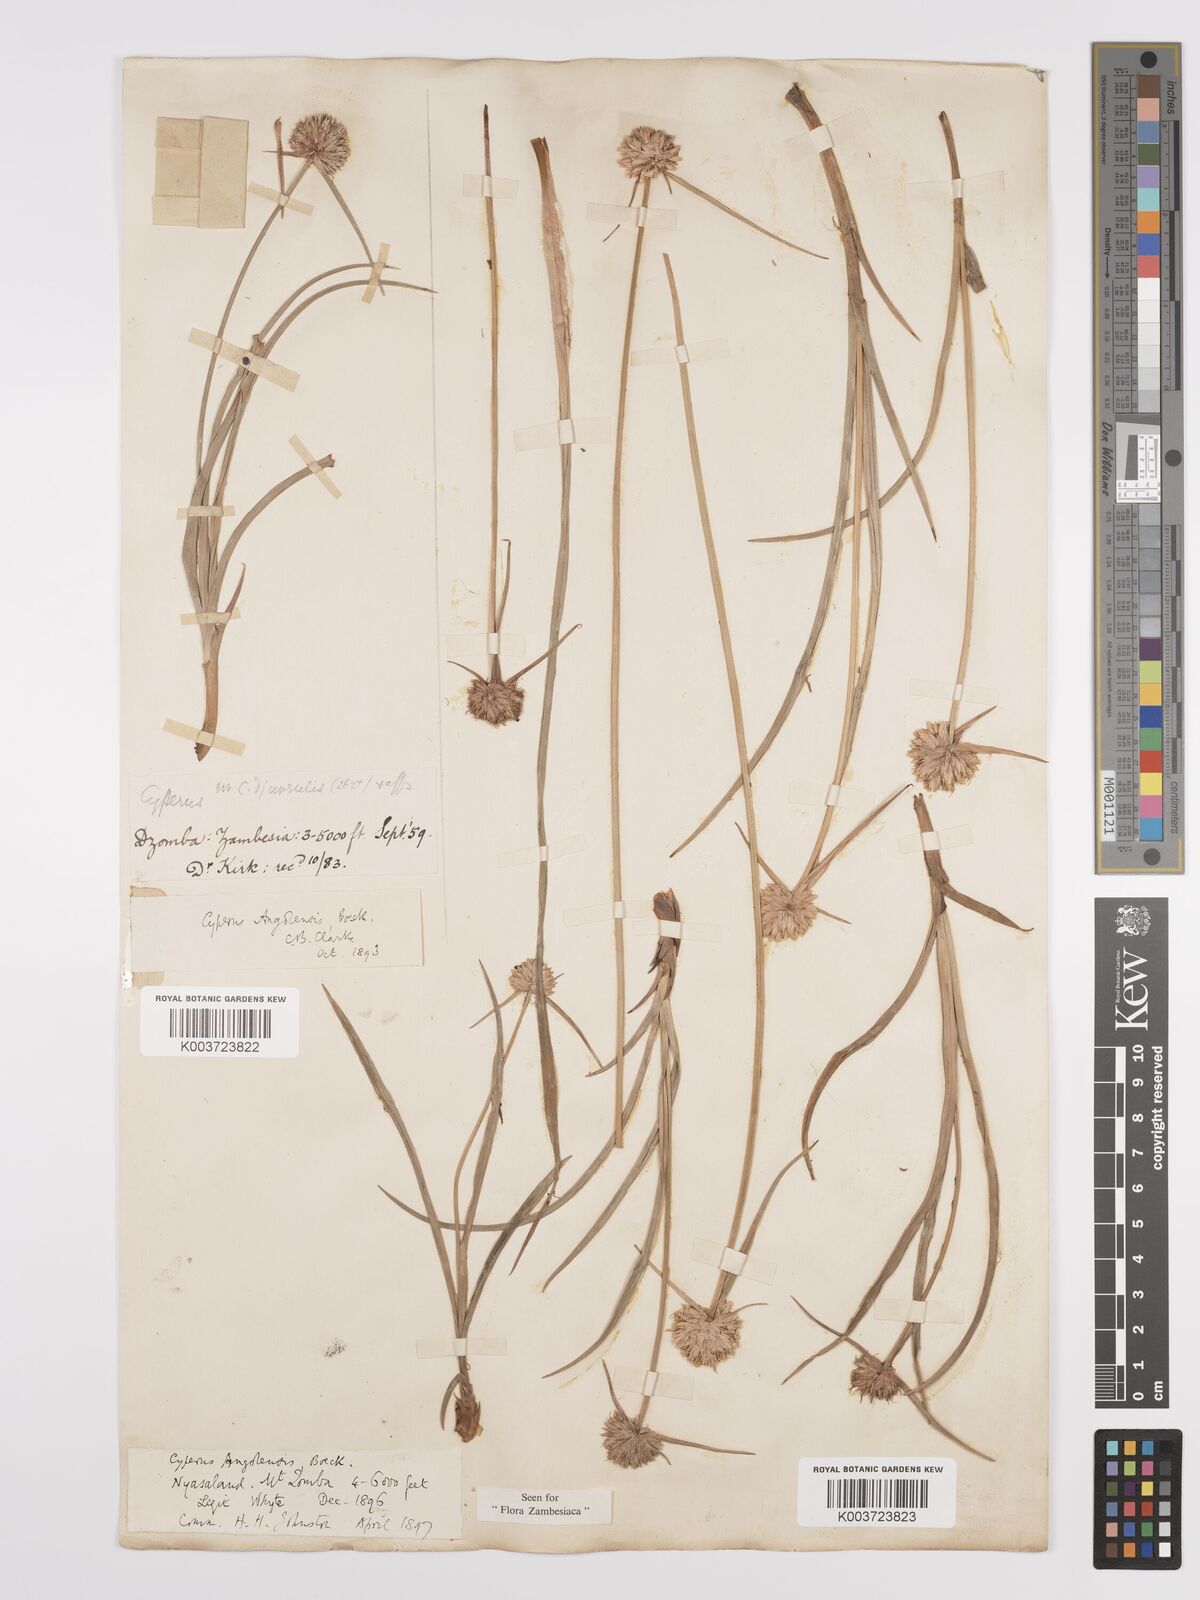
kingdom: Plantae
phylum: Tracheophyta
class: Liliopsida
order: Poales
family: Cyperaceae
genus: Cyperus
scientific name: Cyperus angolensis
